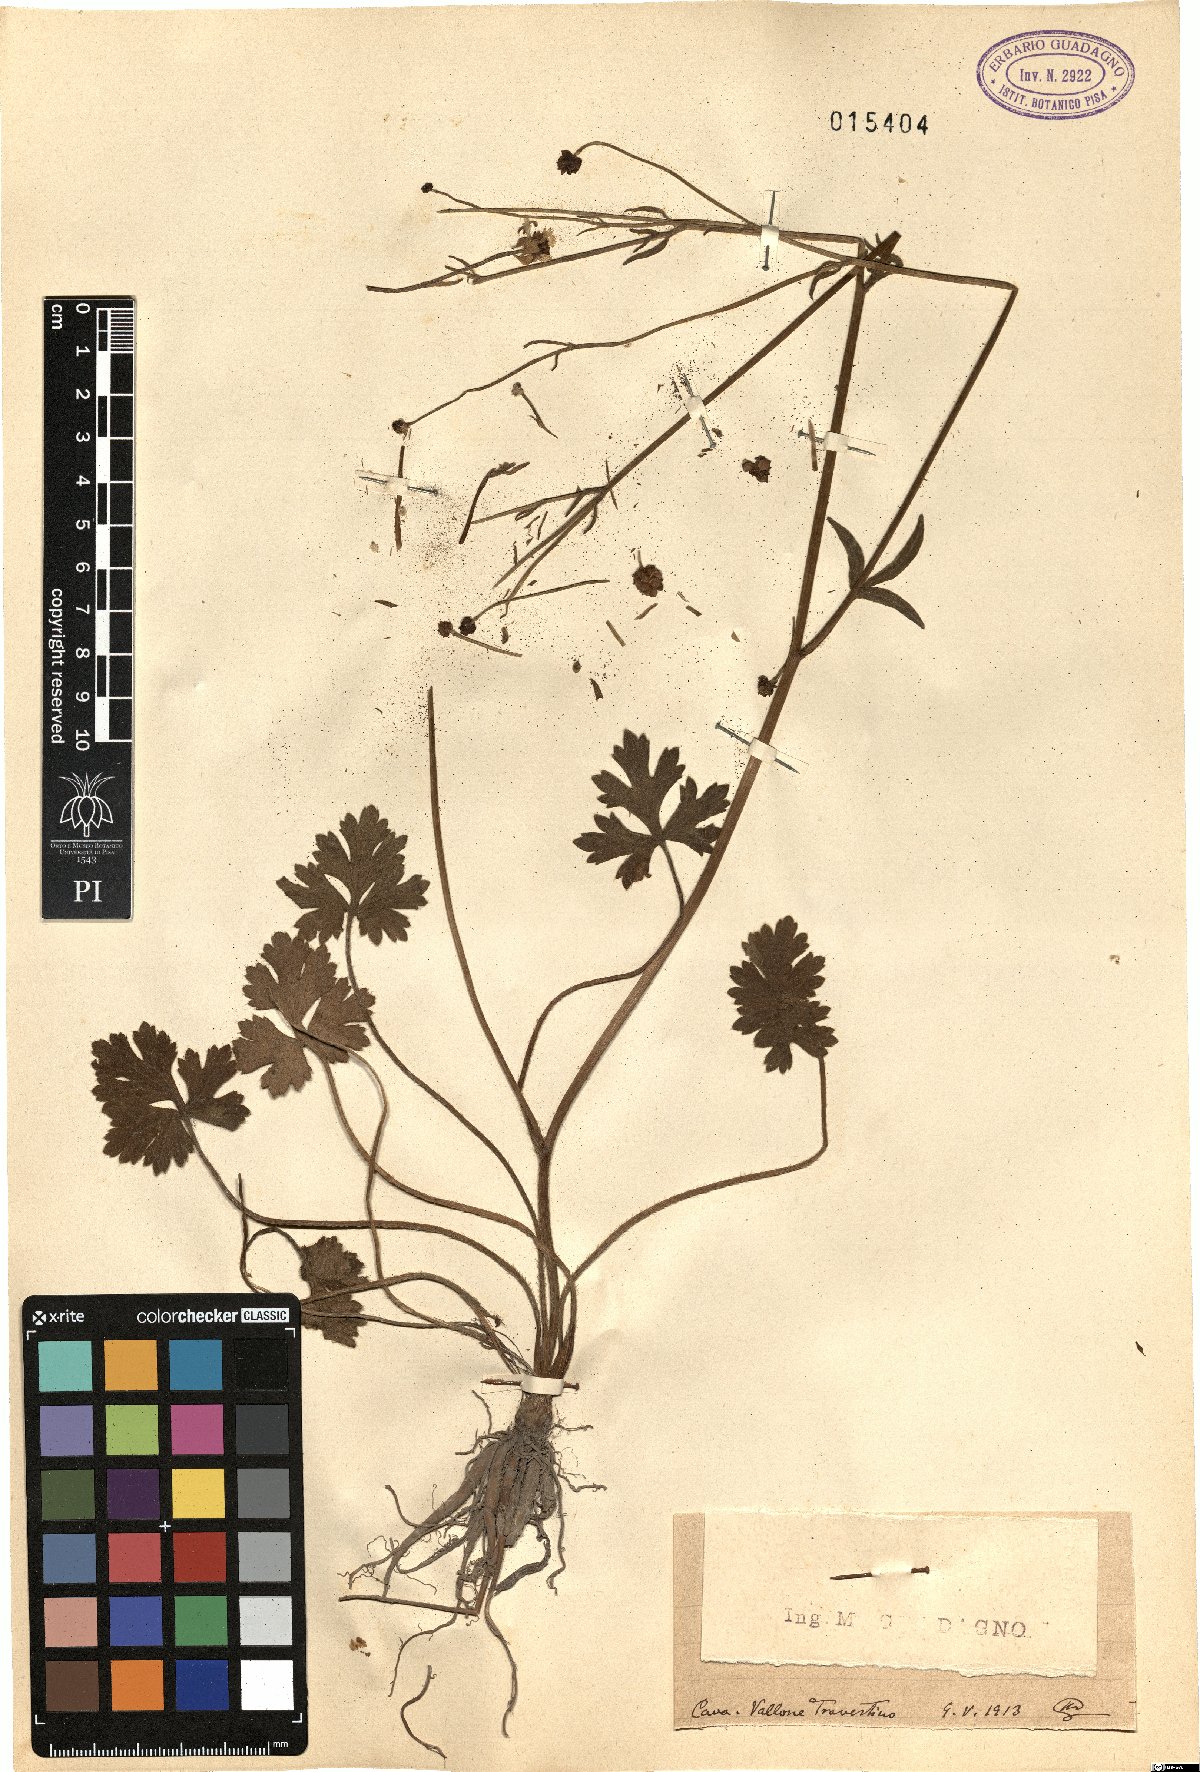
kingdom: Plantae
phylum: Tracheophyta
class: Magnoliopsida
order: Ranunculales
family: Ranunculaceae
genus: Ranunculus
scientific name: Ranunculus
